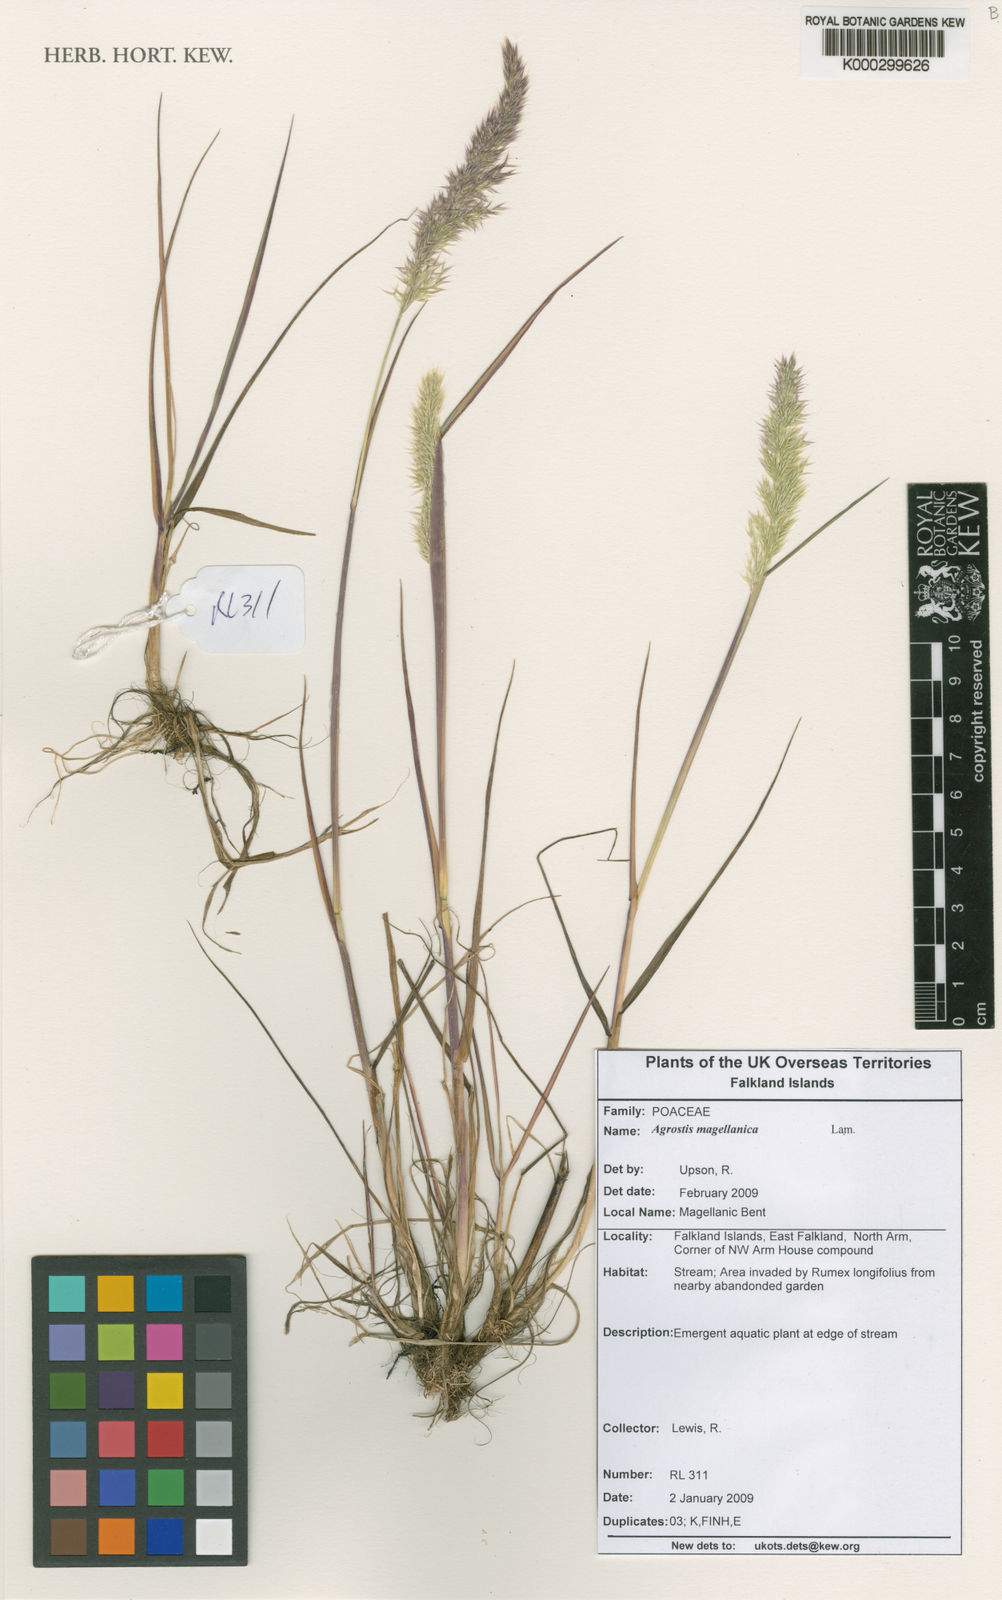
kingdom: Plantae
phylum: Tracheophyta
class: Liliopsida
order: Poales
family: Poaceae
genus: Polypogon
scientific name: Polypogon magellanicus
